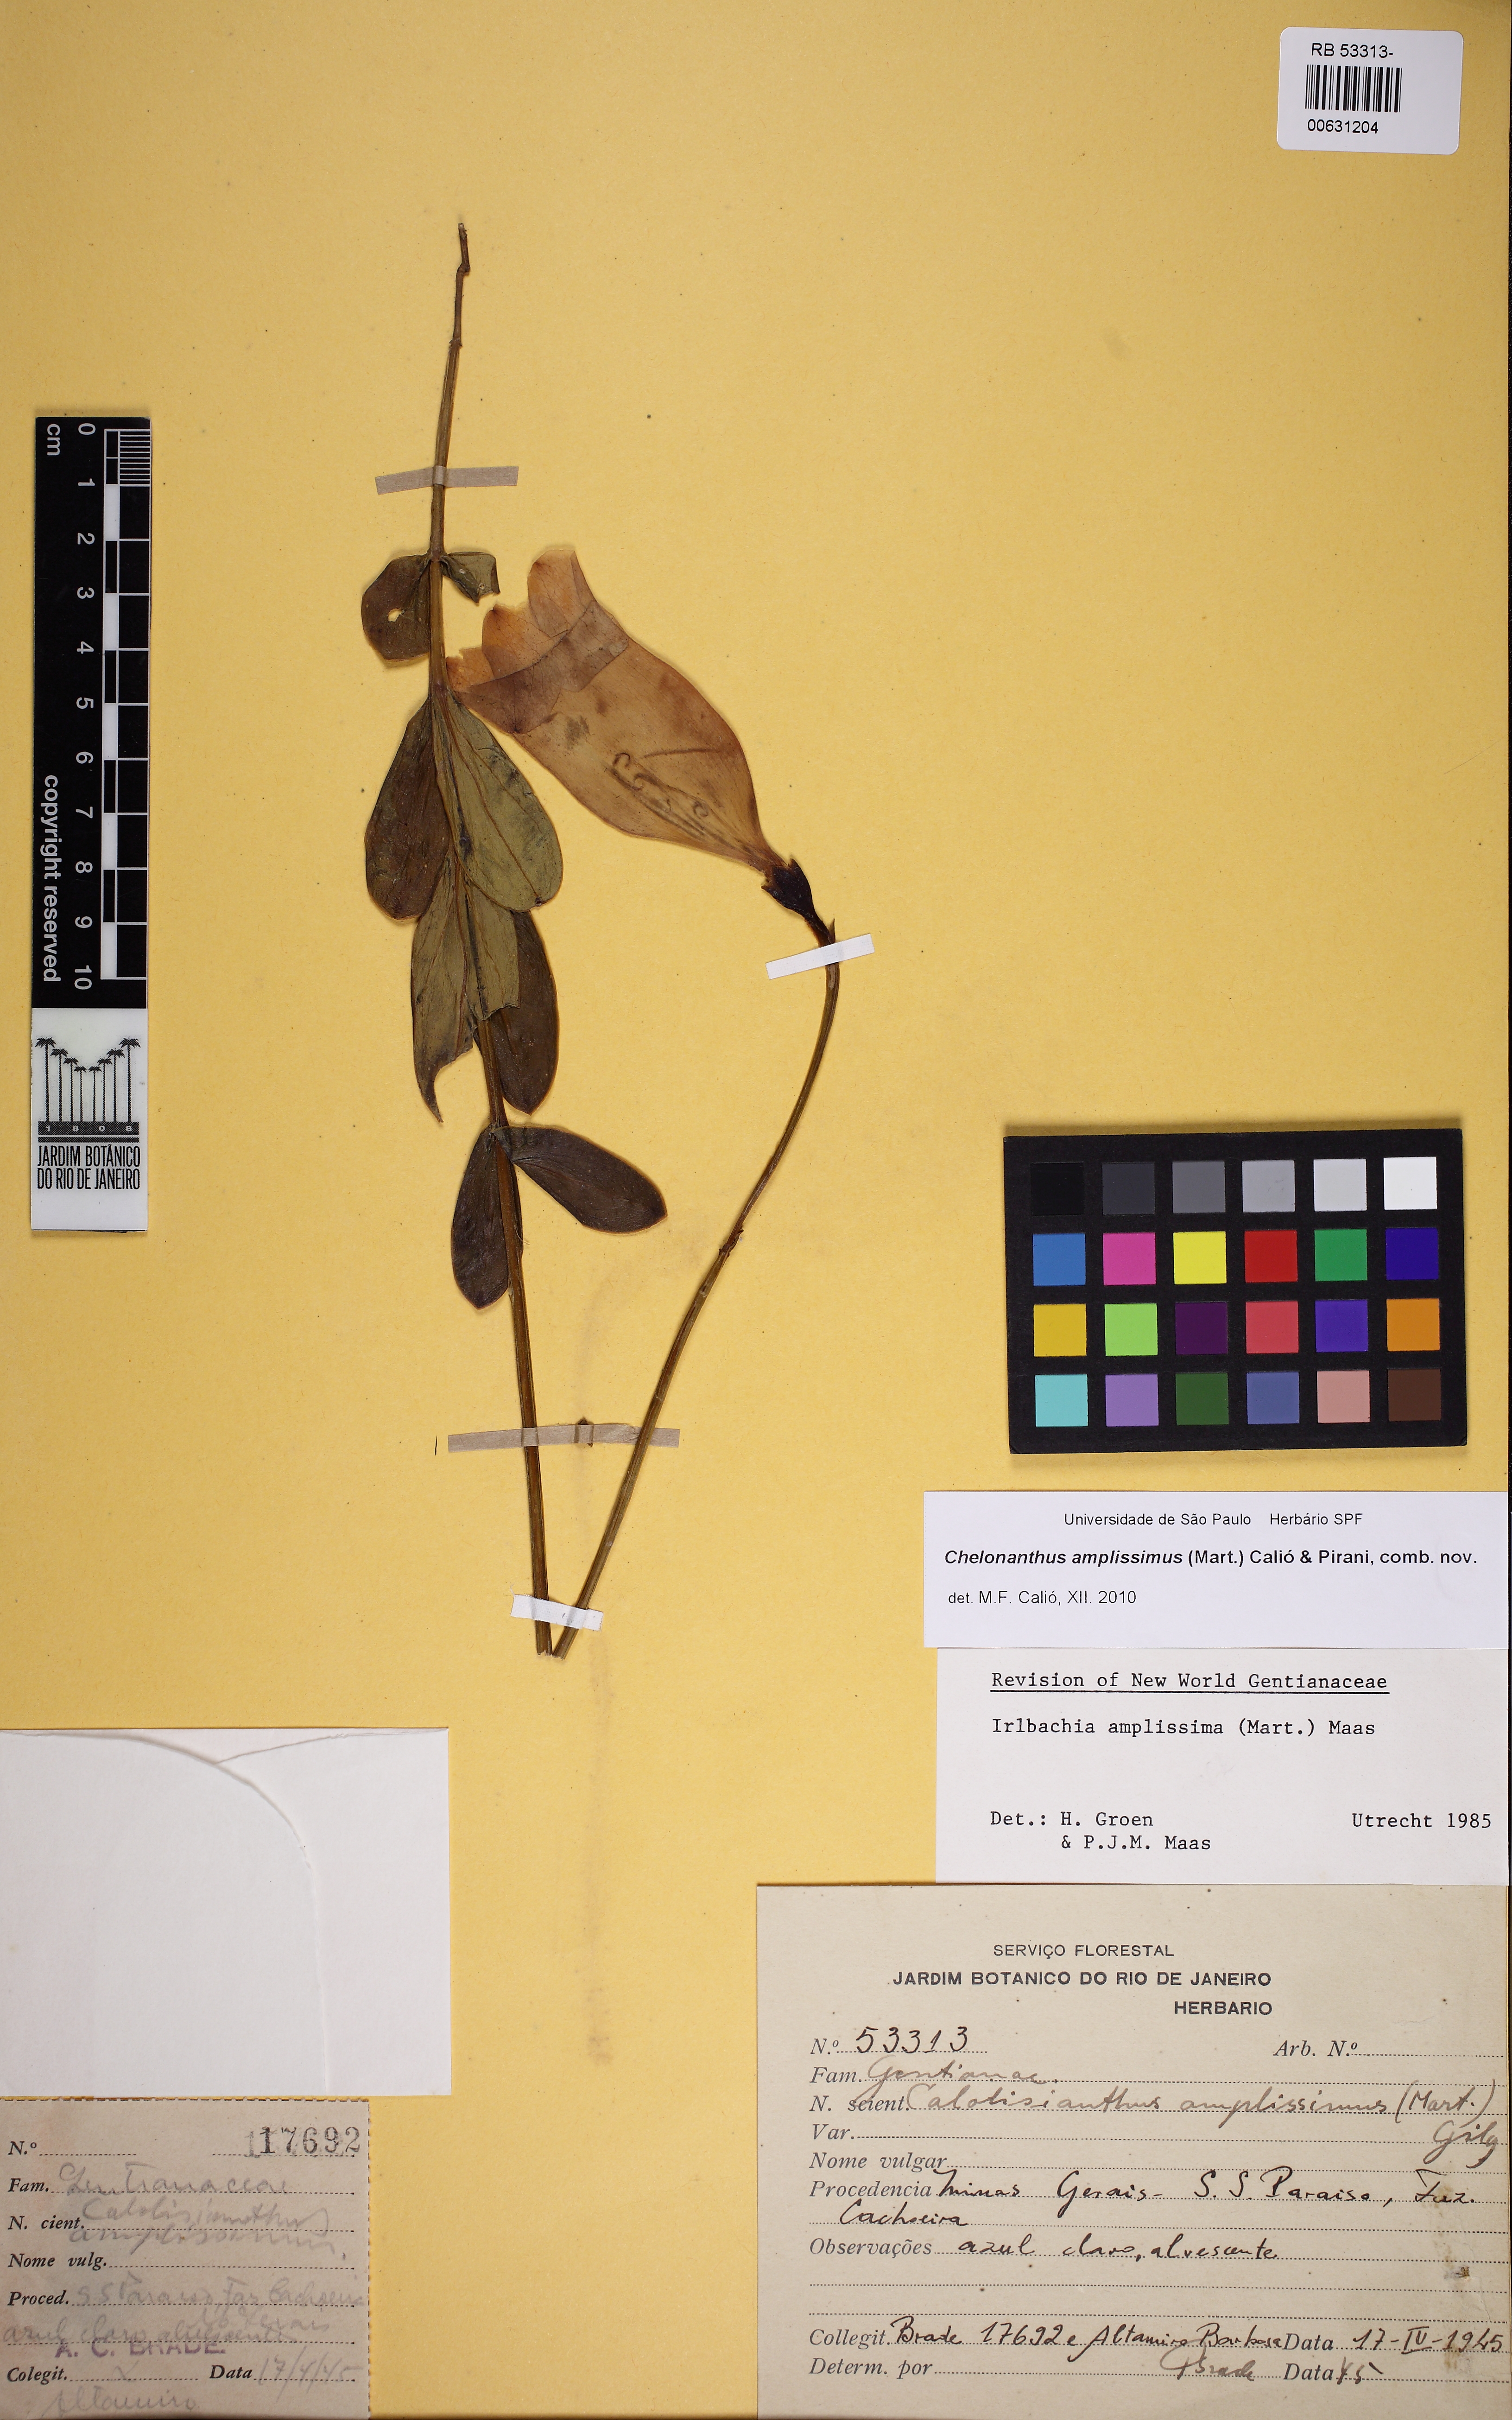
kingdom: Plantae
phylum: Tracheophyta
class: Magnoliopsida
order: Gentianales
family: Gentianaceae
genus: Chelonanthus
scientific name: Chelonanthus
